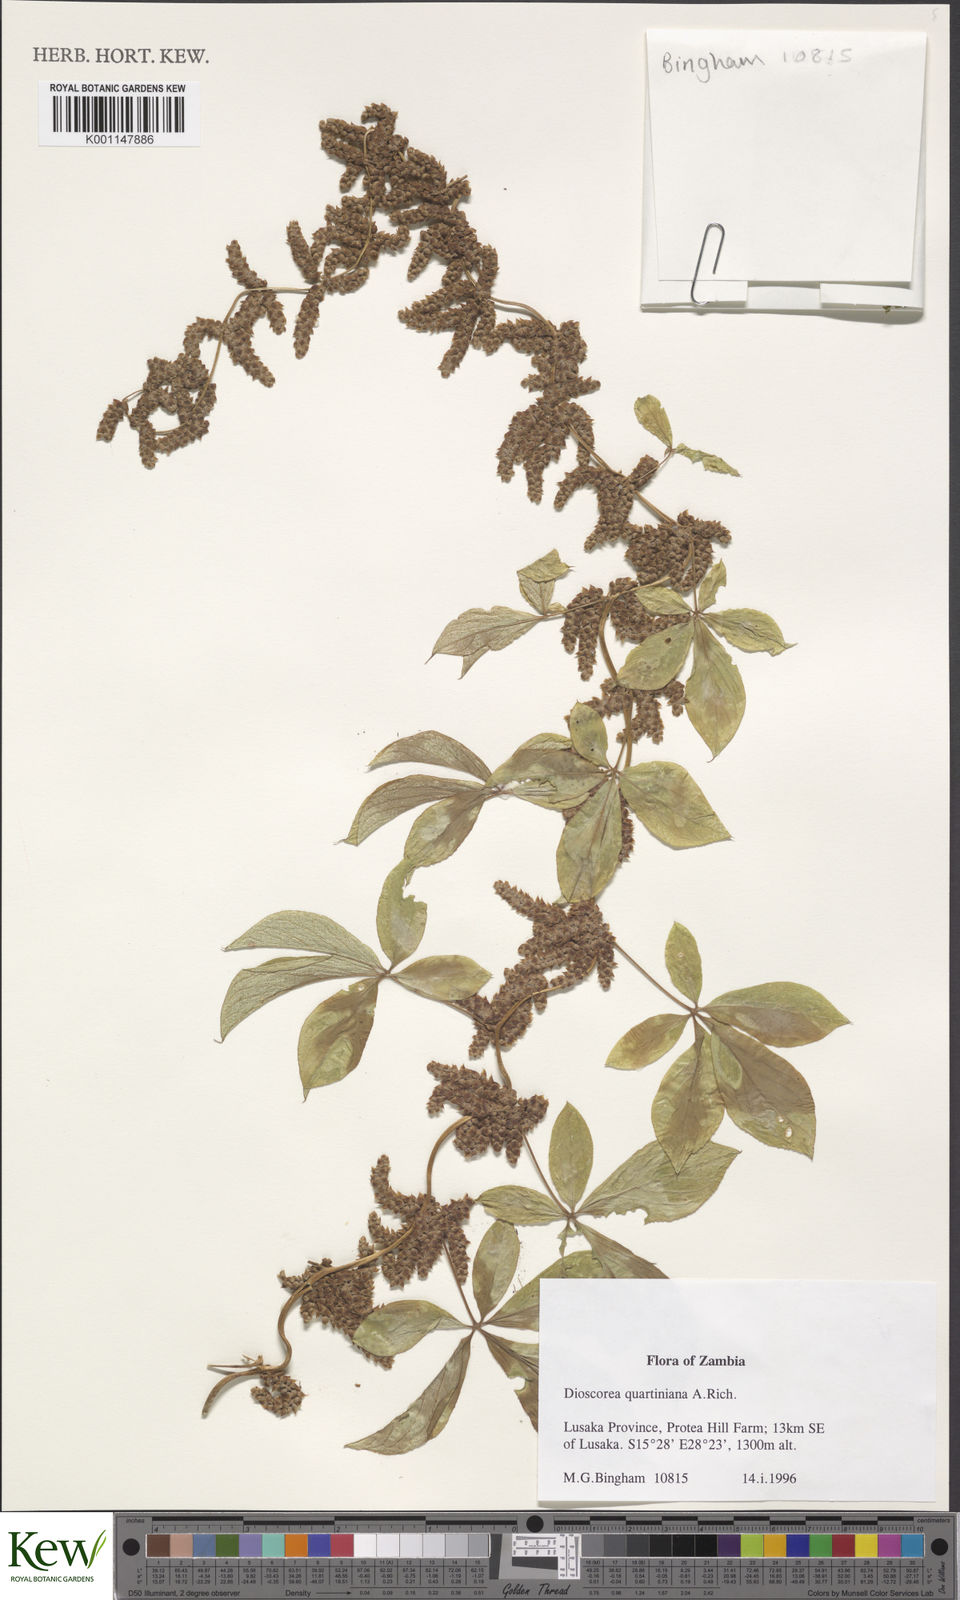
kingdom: Plantae
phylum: Tracheophyta
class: Liliopsida
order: Dioscoreales
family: Dioscoreaceae
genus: Dioscorea
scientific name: Dioscorea quartiniana
